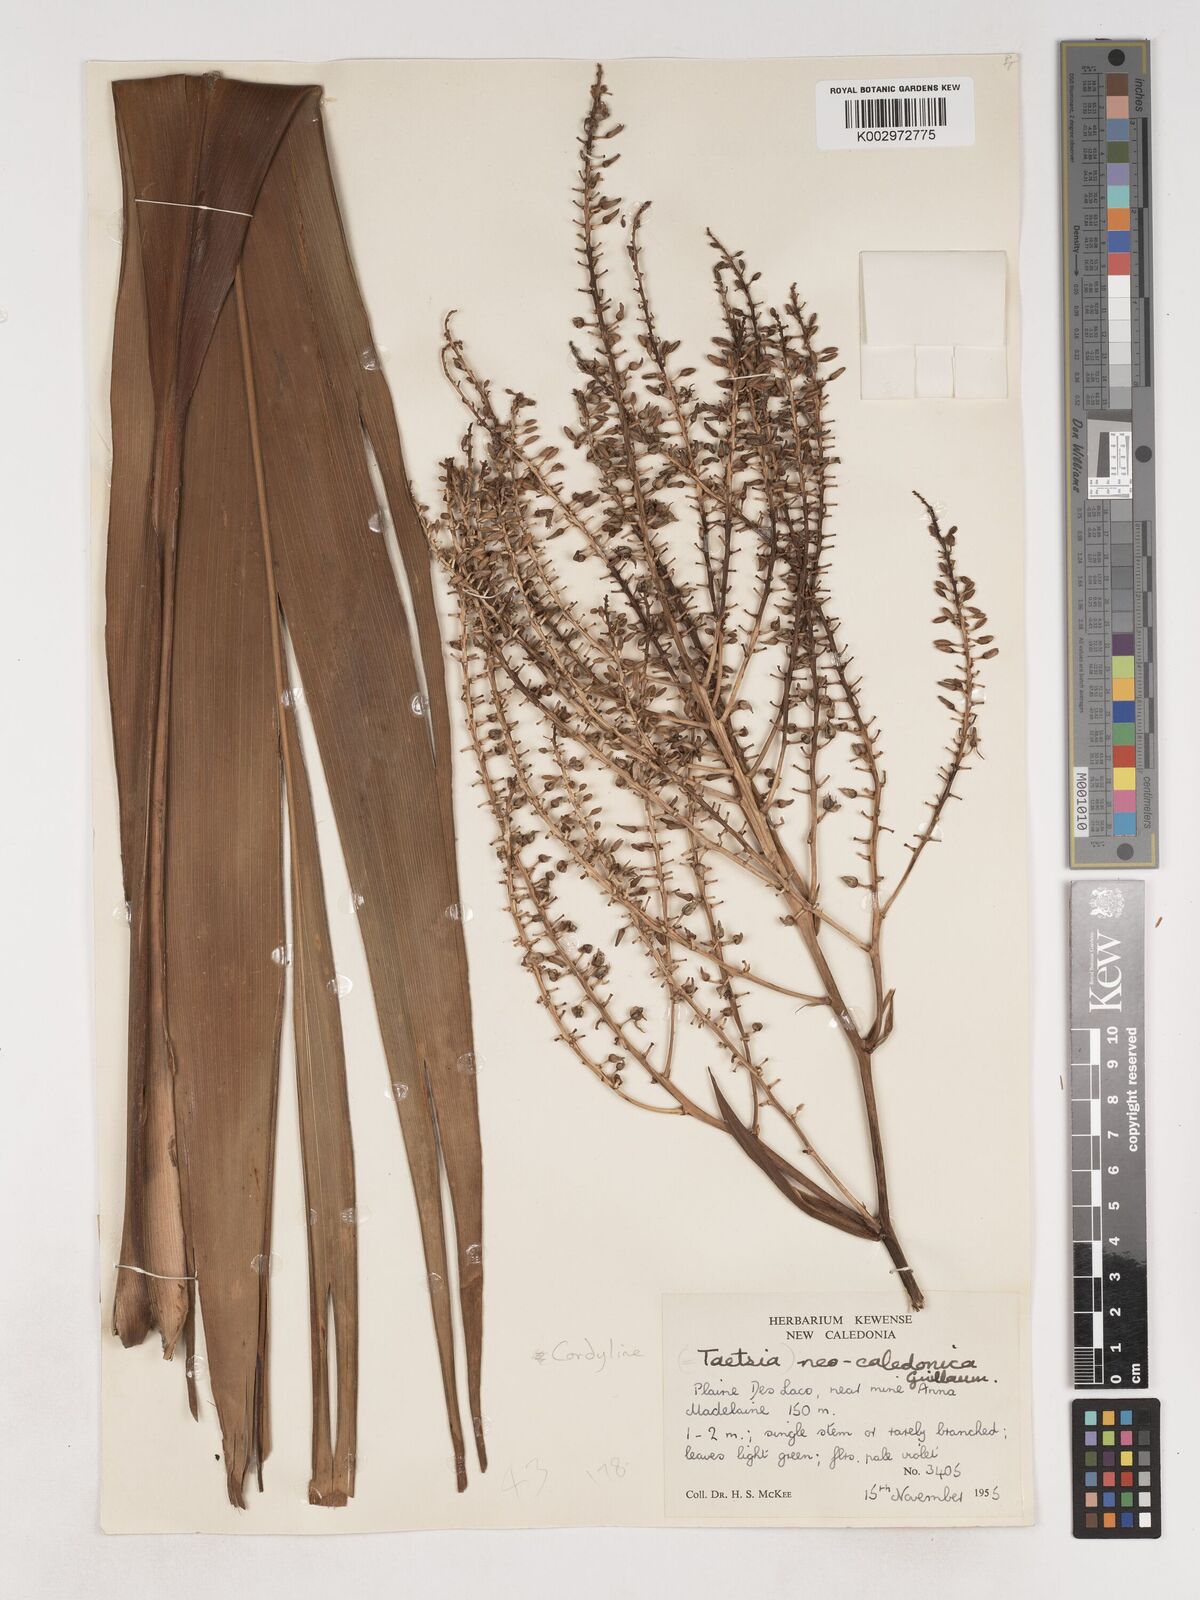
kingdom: Plantae
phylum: Tracheophyta
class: Liliopsida
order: Asparagales
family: Asparagaceae
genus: Cordyline
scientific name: Cordyline neocaledonica
